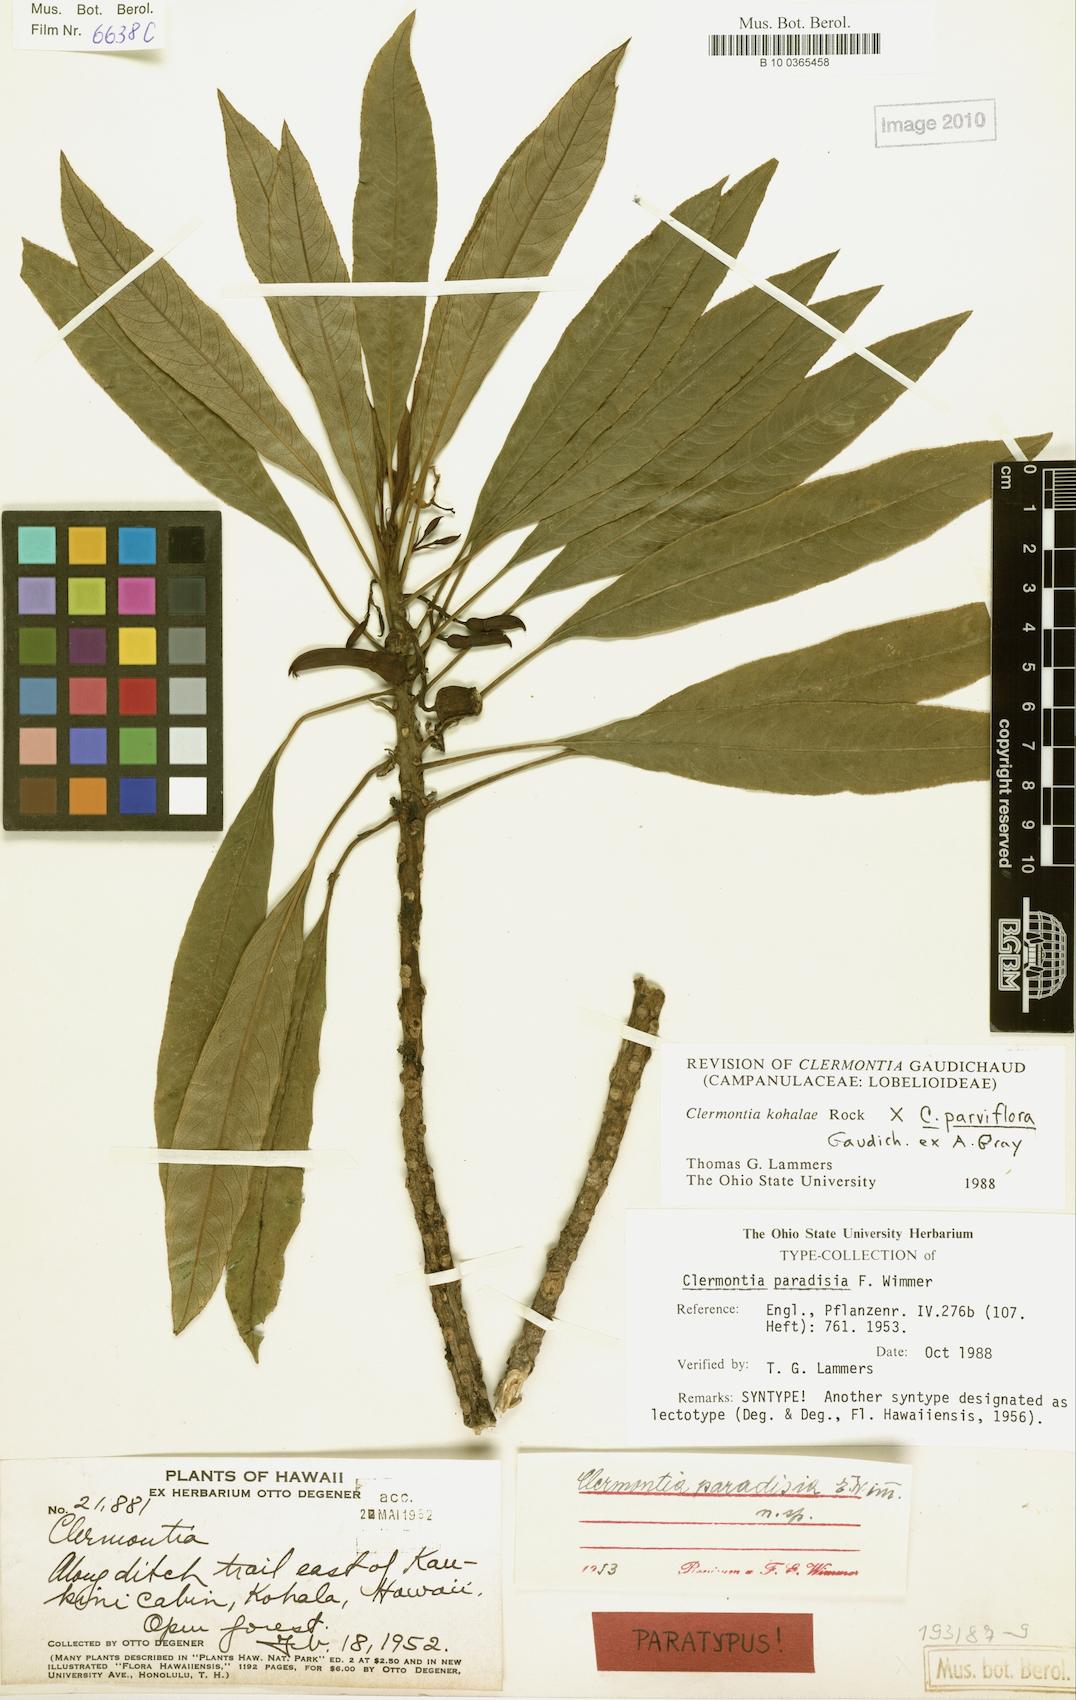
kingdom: Plantae
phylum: Tracheophyta
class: Magnoliopsida
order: Asterales
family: Campanulaceae
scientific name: Campanulaceae
